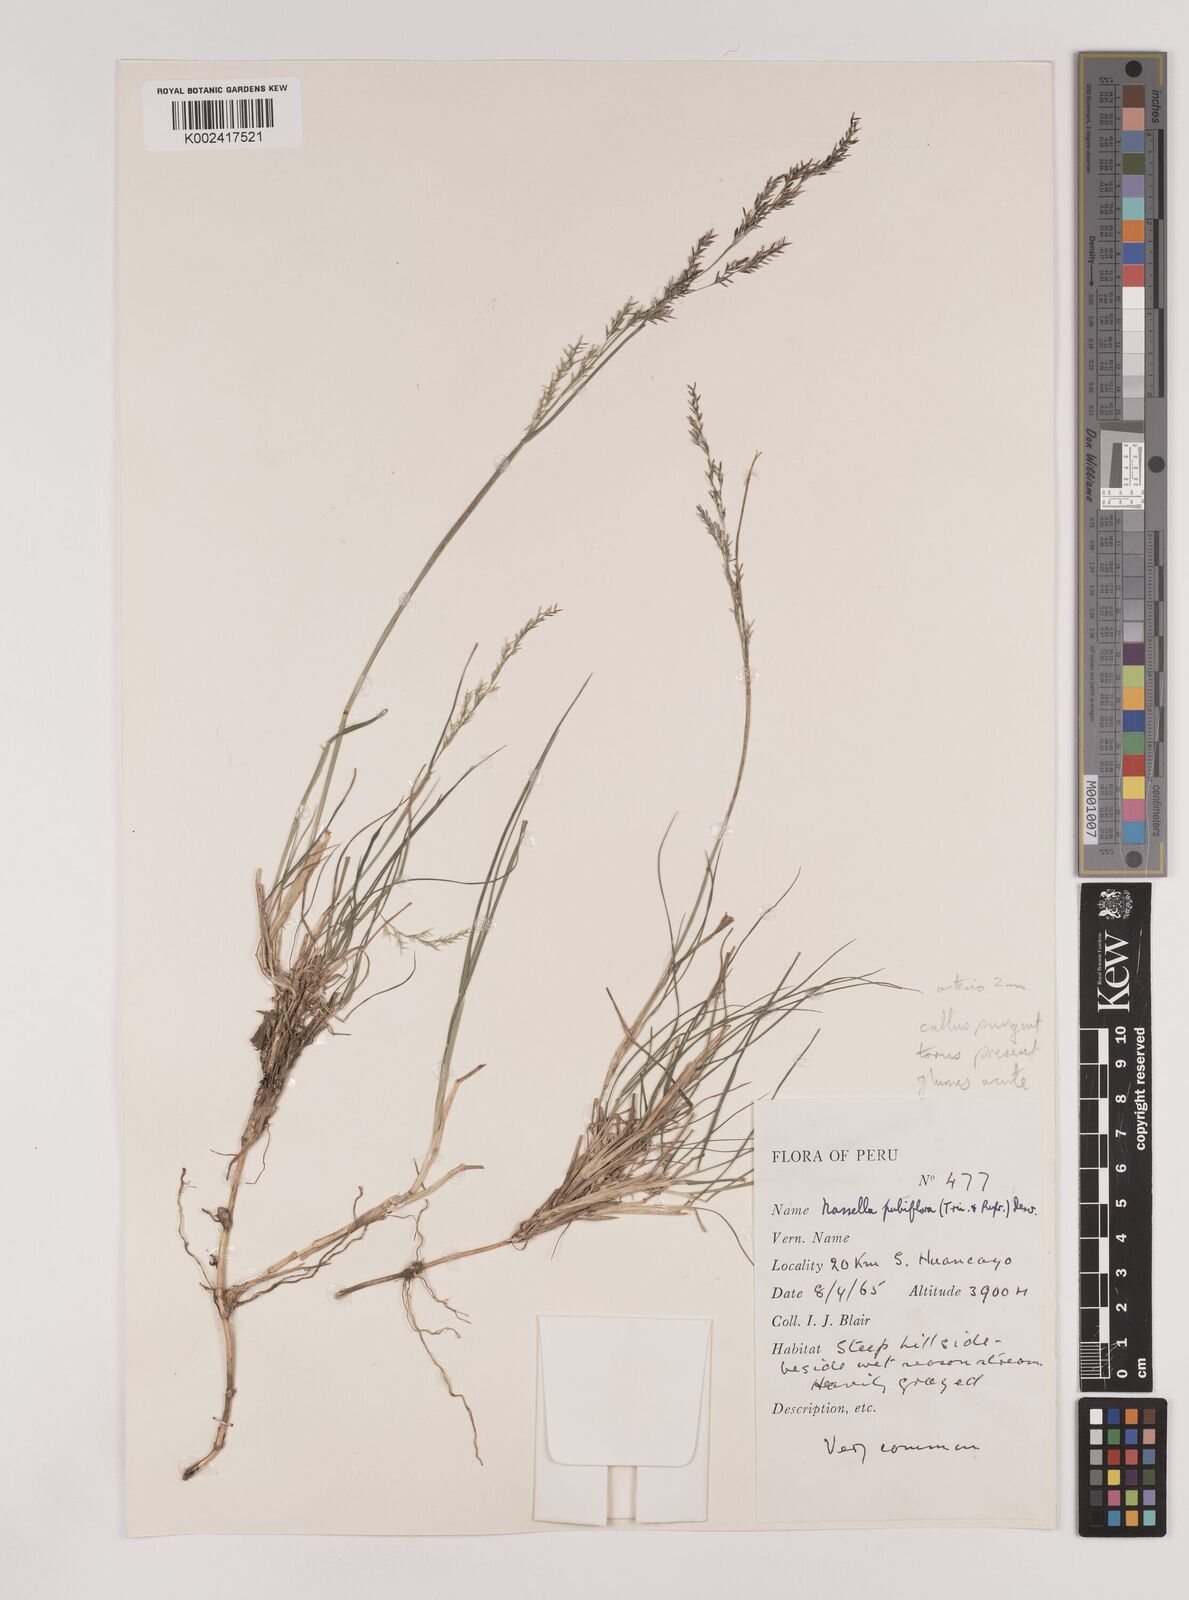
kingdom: Plantae
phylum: Tracheophyta
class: Liliopsida
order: Poales
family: Poaceae
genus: Nassella
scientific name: Nassella pubiflora
